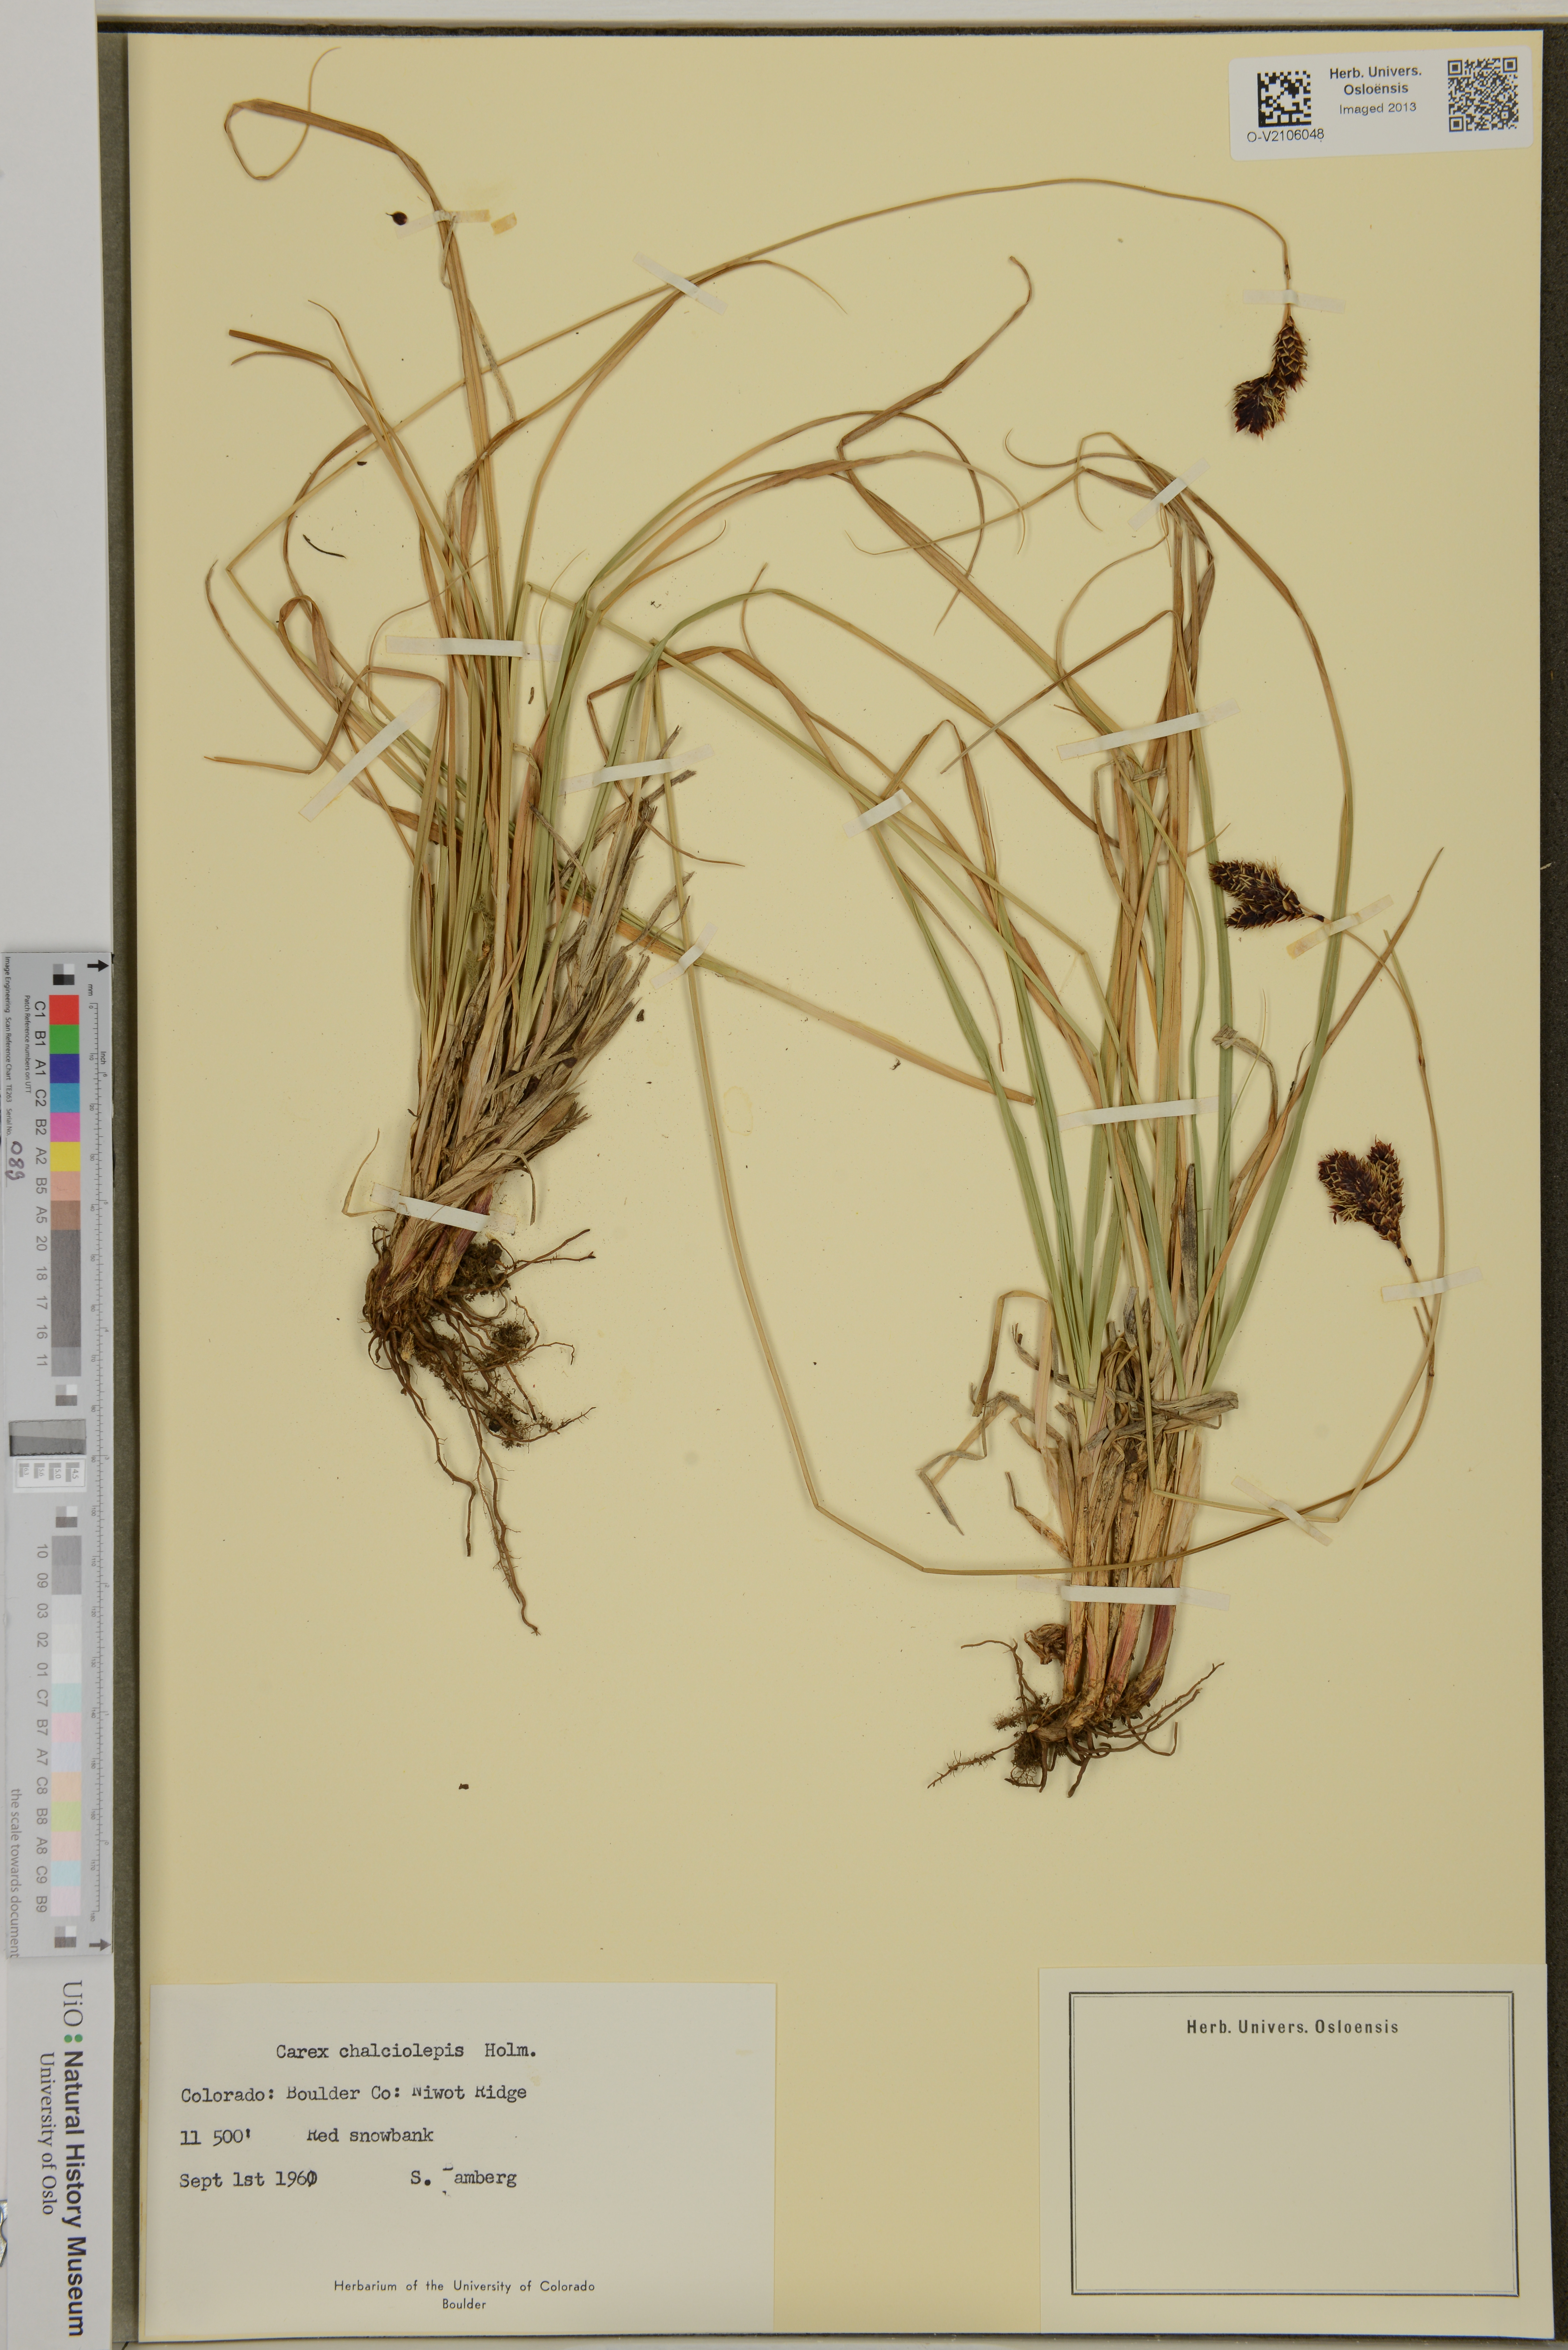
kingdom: Plantae
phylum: Tracheophyta
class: Liliopsida
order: Poales
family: Cyperaceae
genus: Carex
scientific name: Carex chalciolepis
